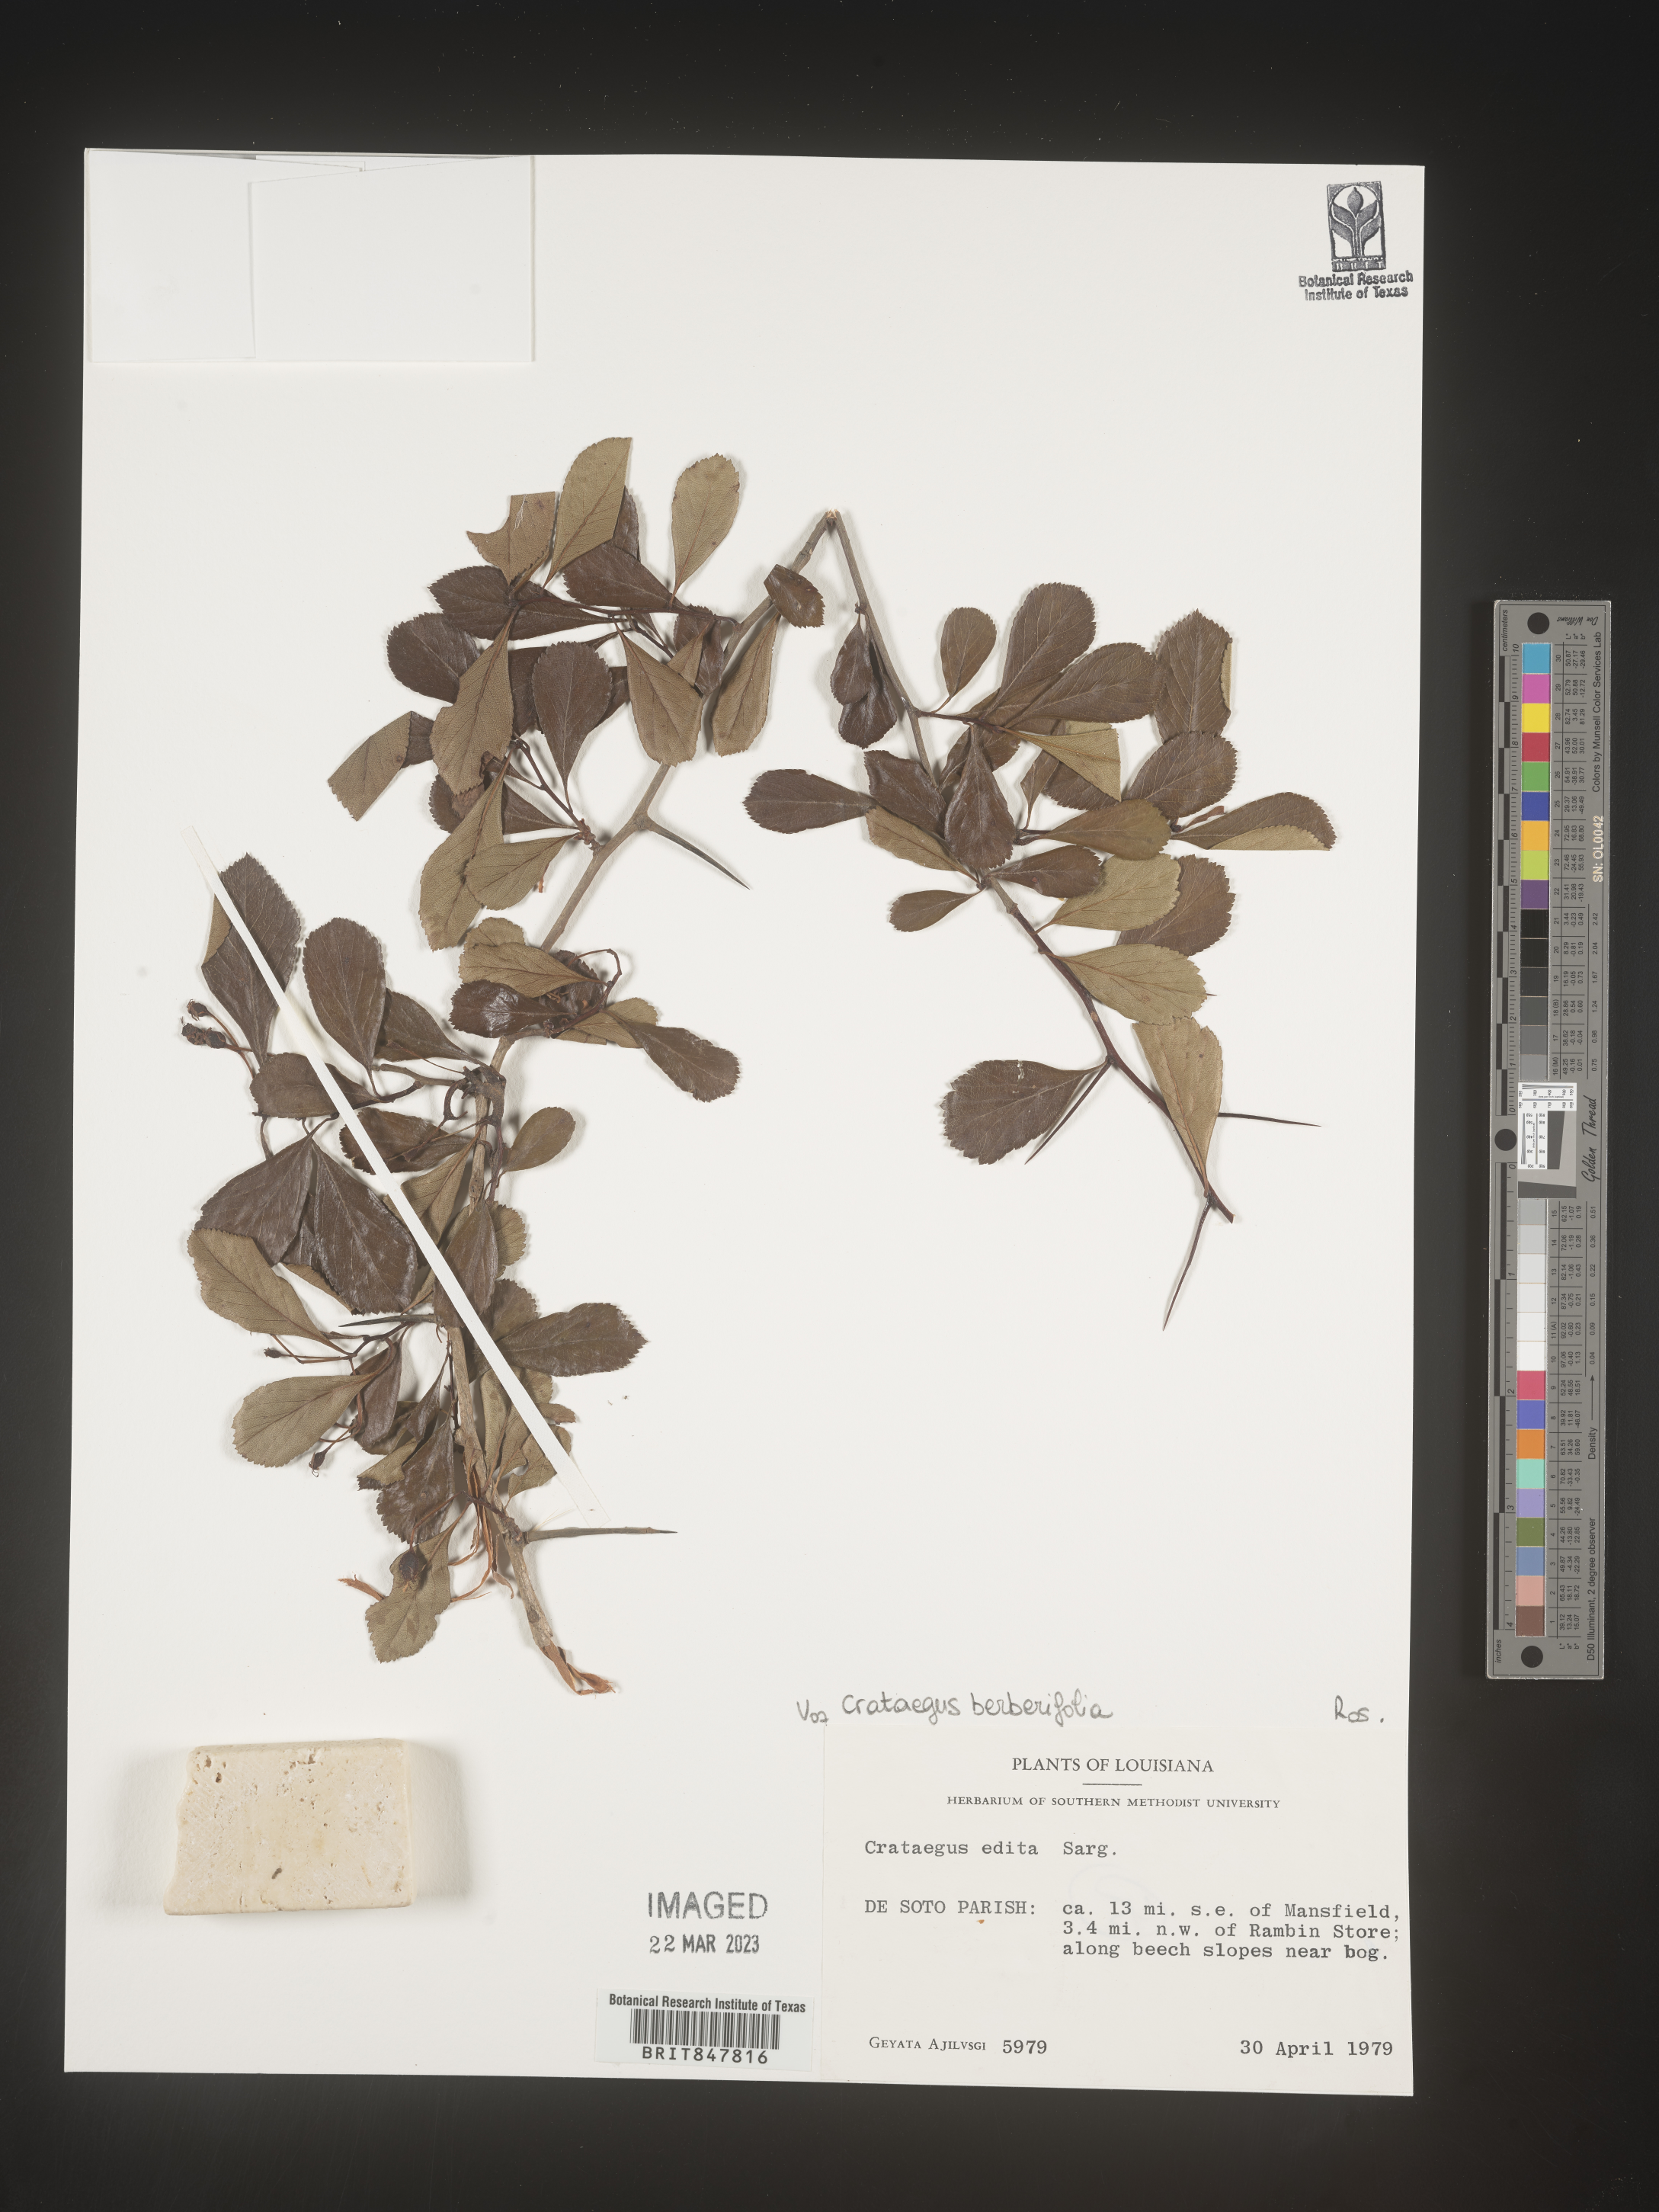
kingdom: Plantae
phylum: Tracheophyta
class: Magnoliopsida
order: Rosales
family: Rosaceae
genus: Crataegus
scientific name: Crataegus
